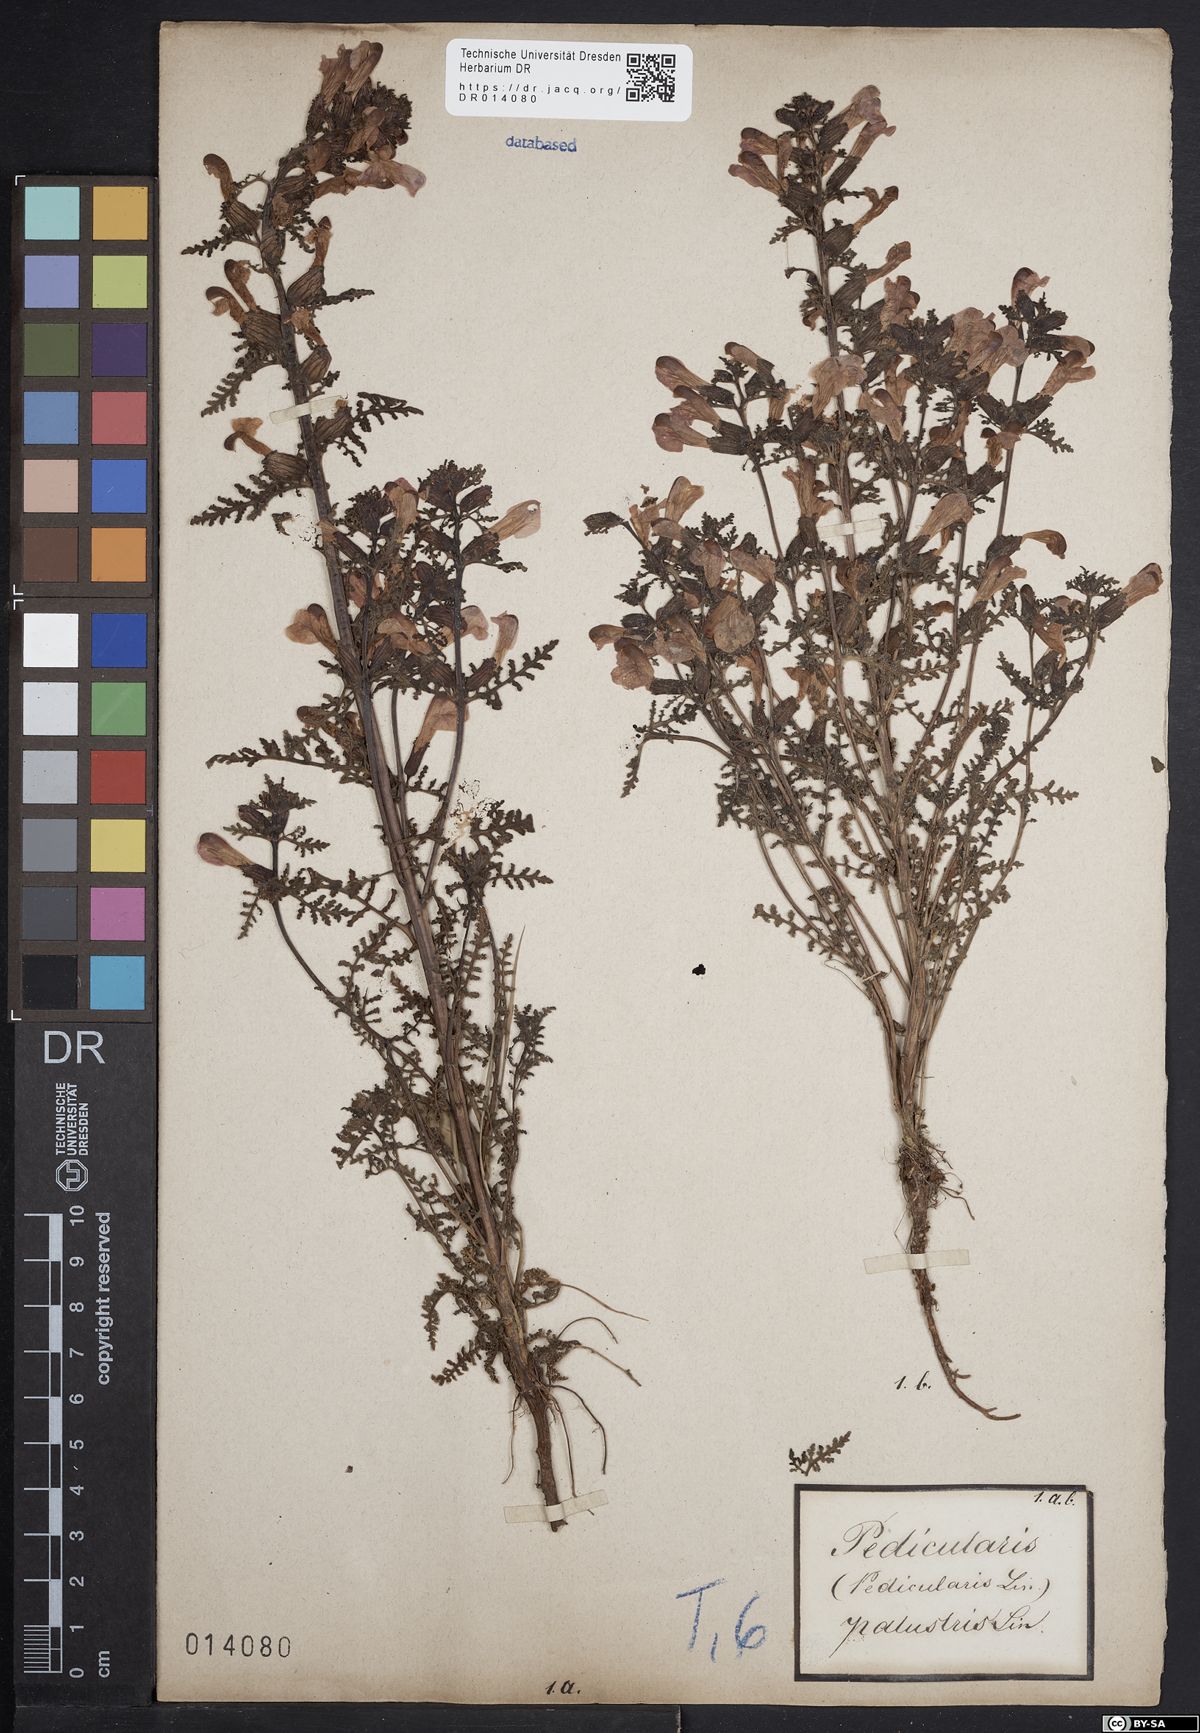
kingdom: Plantae
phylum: Tracheophyta
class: Magnoliopsida
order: Lamiales
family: Orobanchaceae
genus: Pedicularis
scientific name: Pedicularis palustris
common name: Marsh lousewort
